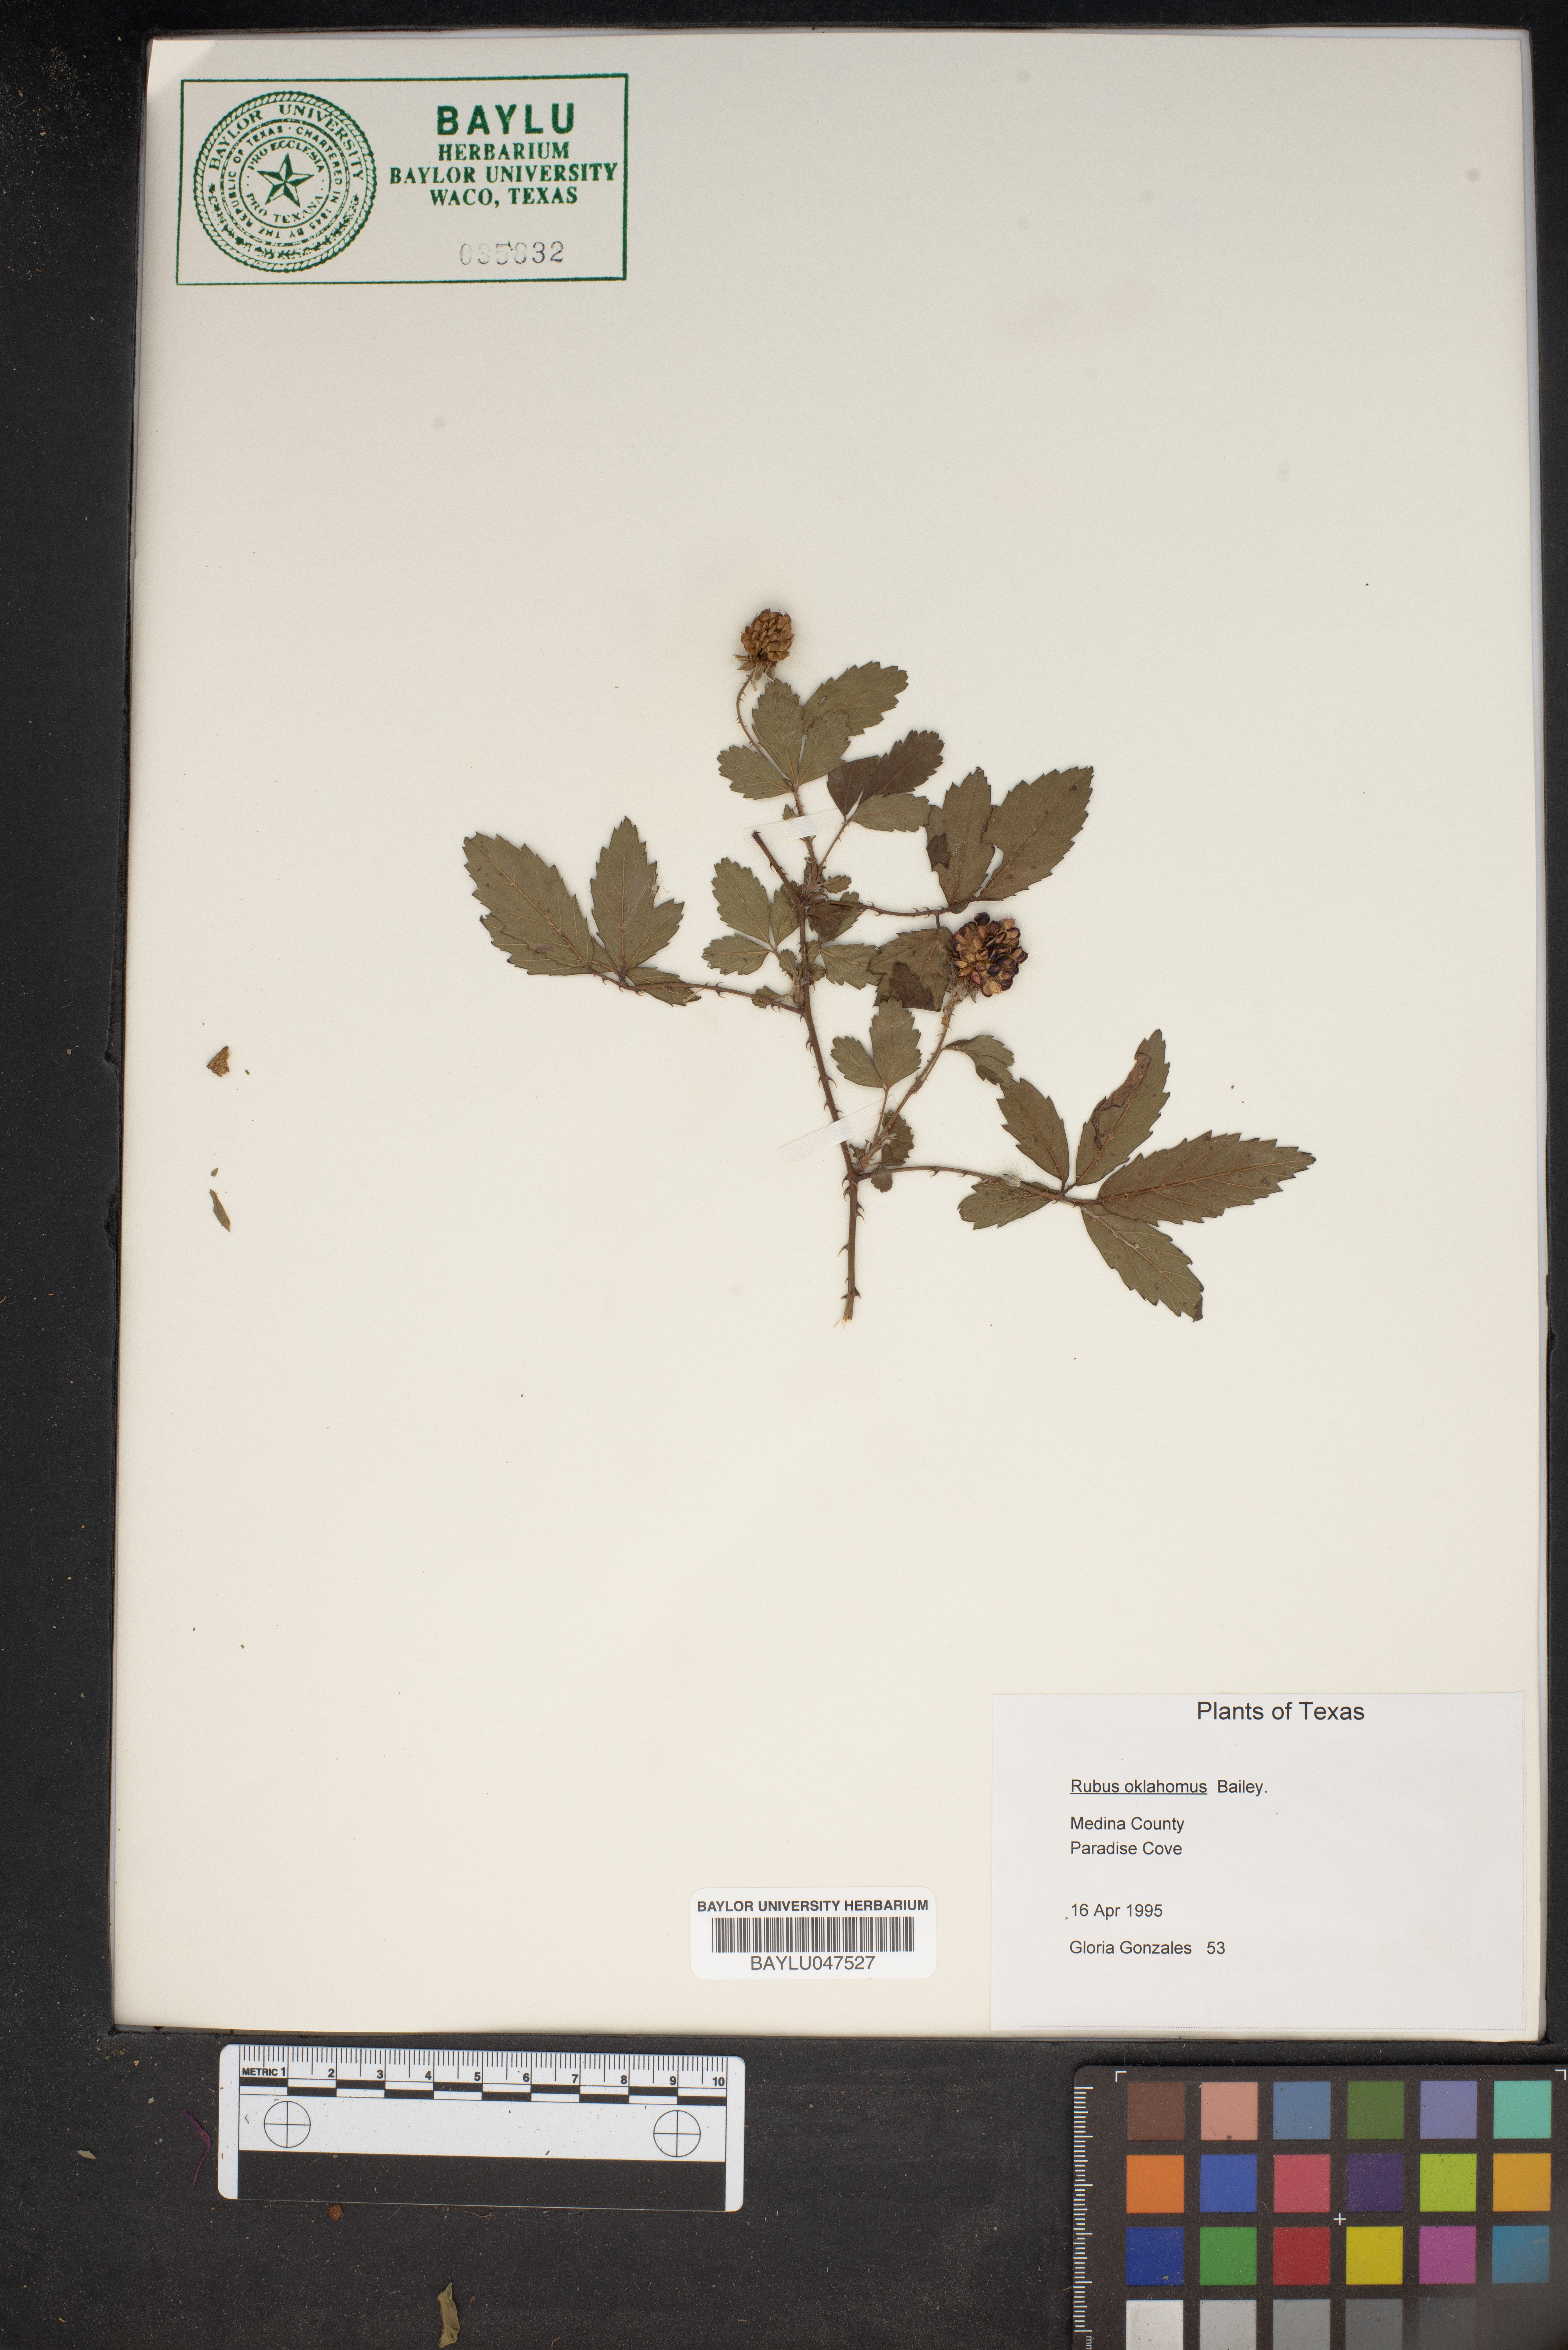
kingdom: Plantae
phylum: Tracheophyta
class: Magnoliopsida
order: Rosales
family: Rosaceae
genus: Rubus
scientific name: Rubus oklahomus
